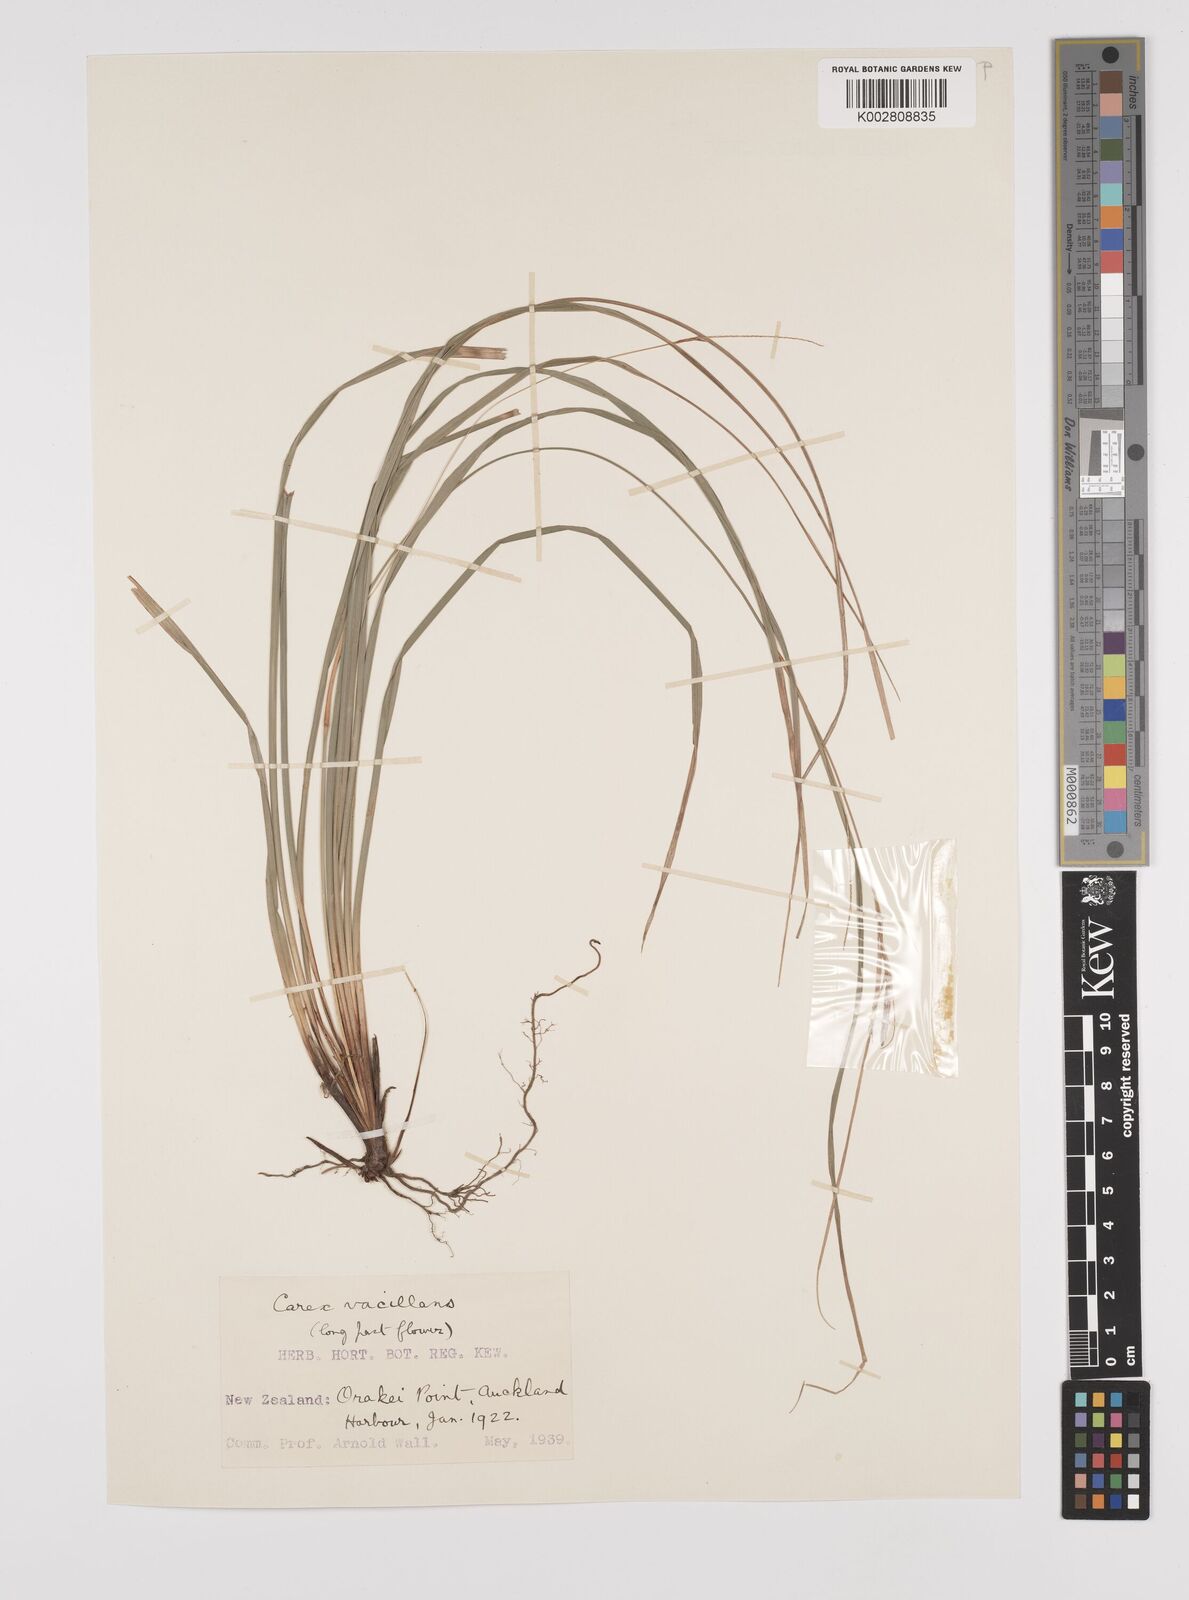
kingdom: Plantae
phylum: Tracheophyta
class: Liliopsida
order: Poales
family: Cyperaceae
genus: Carex
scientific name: Carex spinirostris
